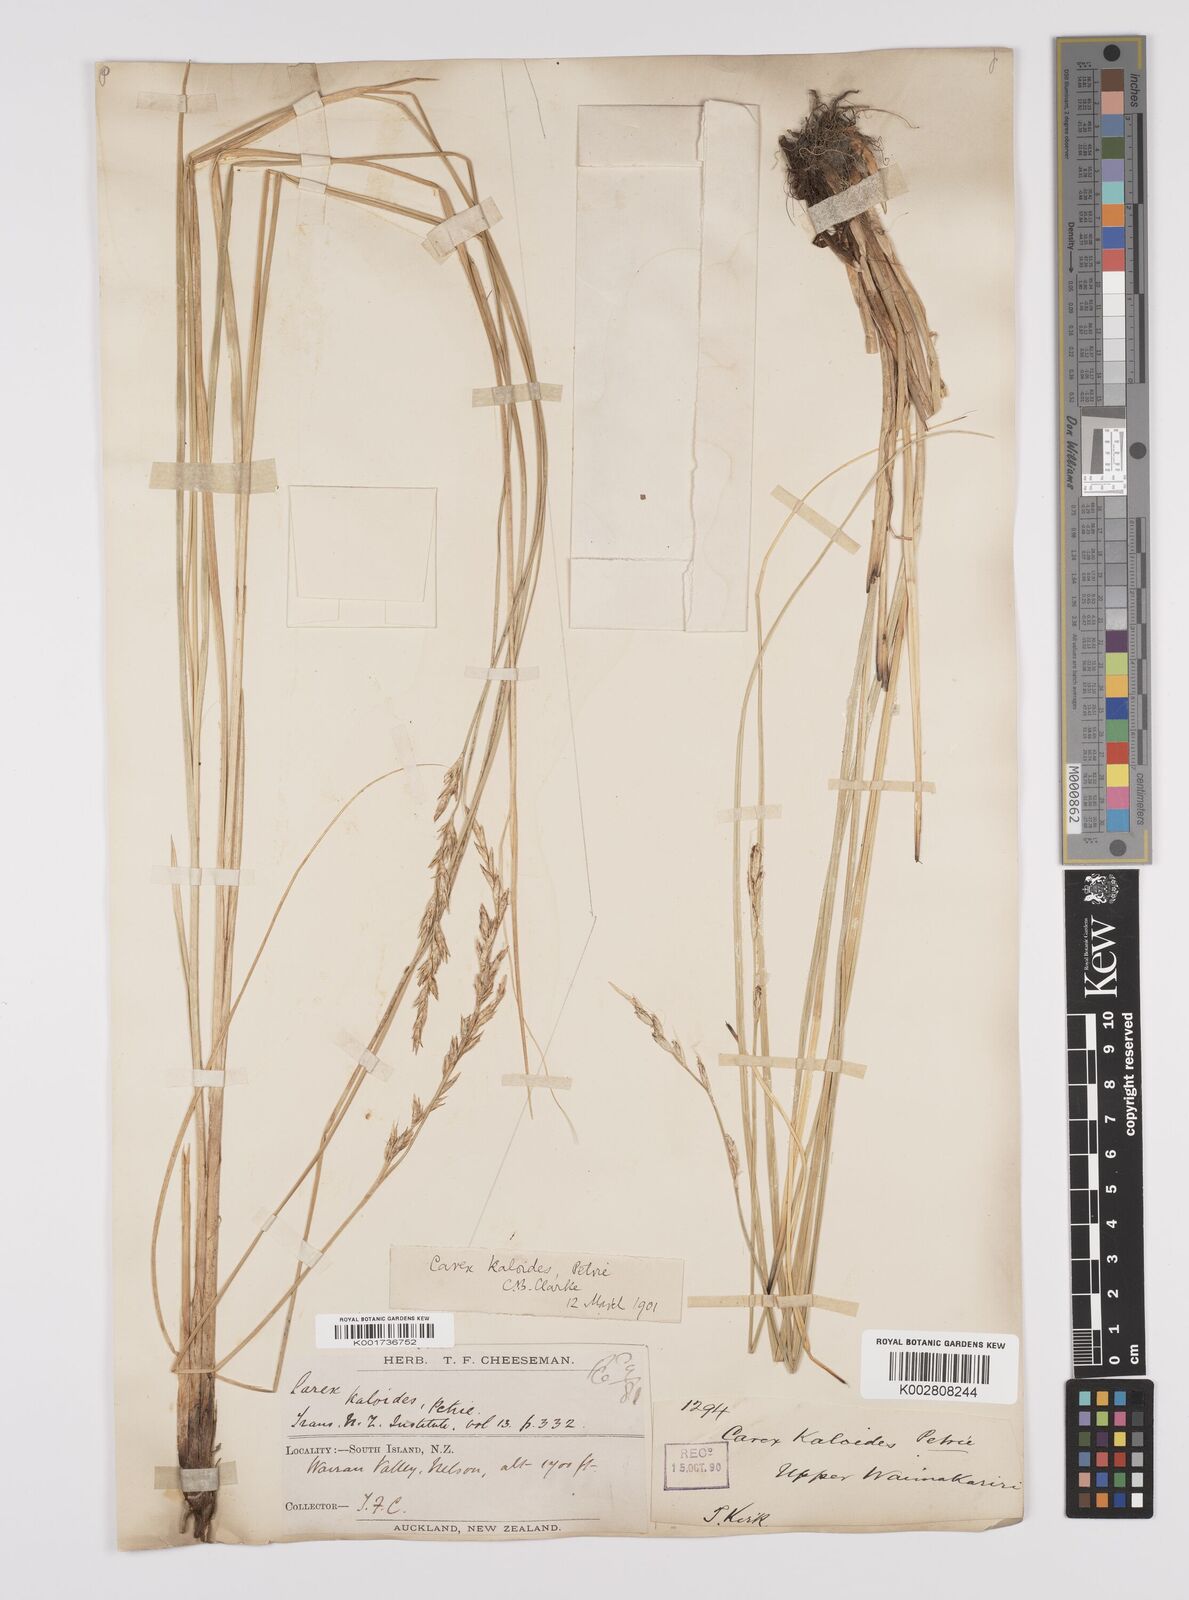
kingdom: Plantae
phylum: Tracheophyta
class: Liliopsida
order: Poales
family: Cyperaceae
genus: Carex
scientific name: Carex kaloides
